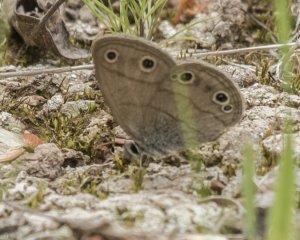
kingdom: Animalia
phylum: Arthropoda
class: Insecta
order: Lepidoptera
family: Nymphalidae
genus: Euptychia
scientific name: Euptychia cymela
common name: Little Wood Satyr
